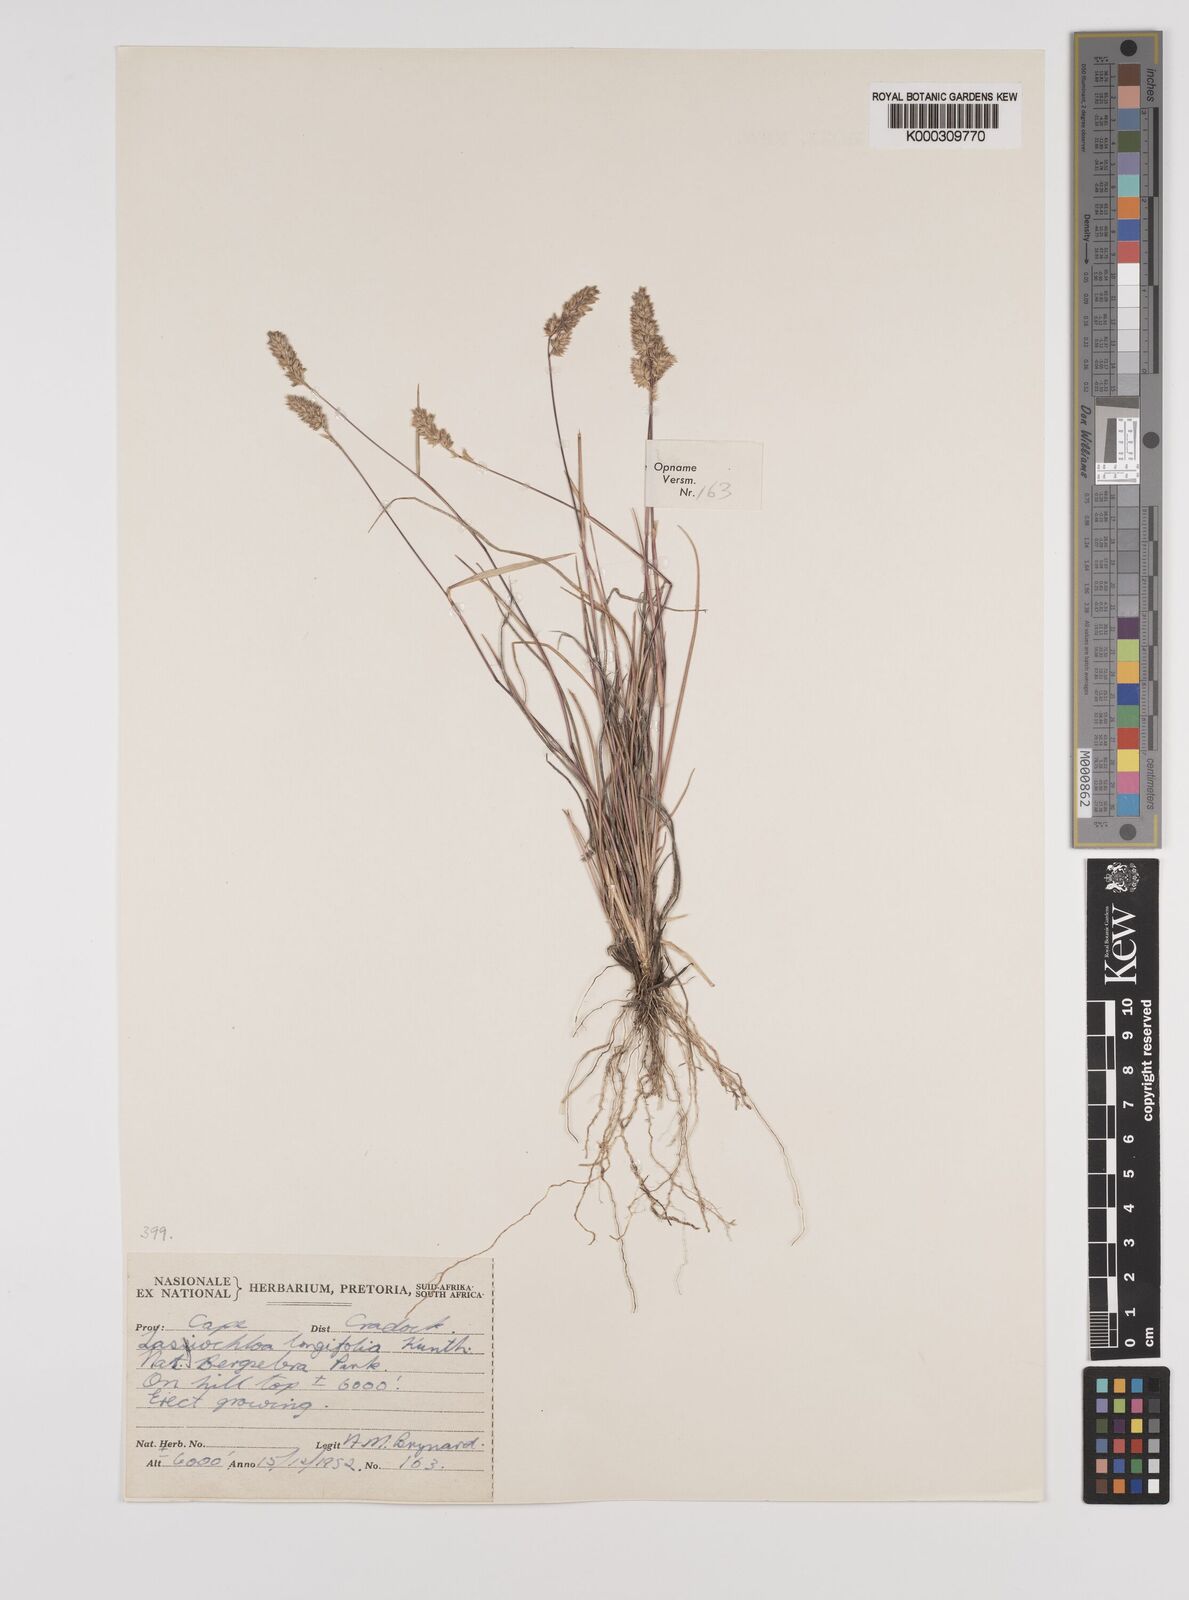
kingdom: Plantae
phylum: Tracheophyta
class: Liliopsida
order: Poales
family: Poaceae
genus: Tribolium
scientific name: Tribolium hispidum
